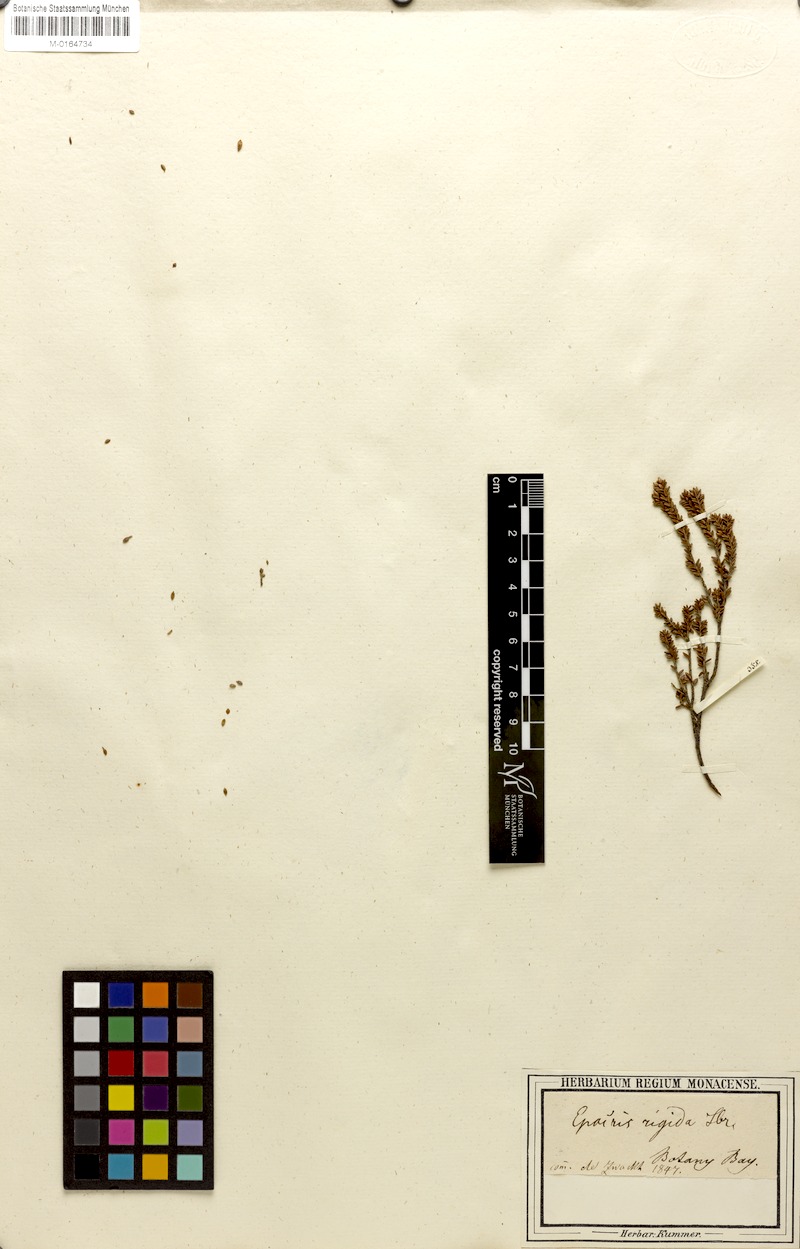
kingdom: Plantae
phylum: Tracheophyta
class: Magnoliopsida
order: Ericales
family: Ericaceae
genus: Epacris
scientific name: Epacris rigida
